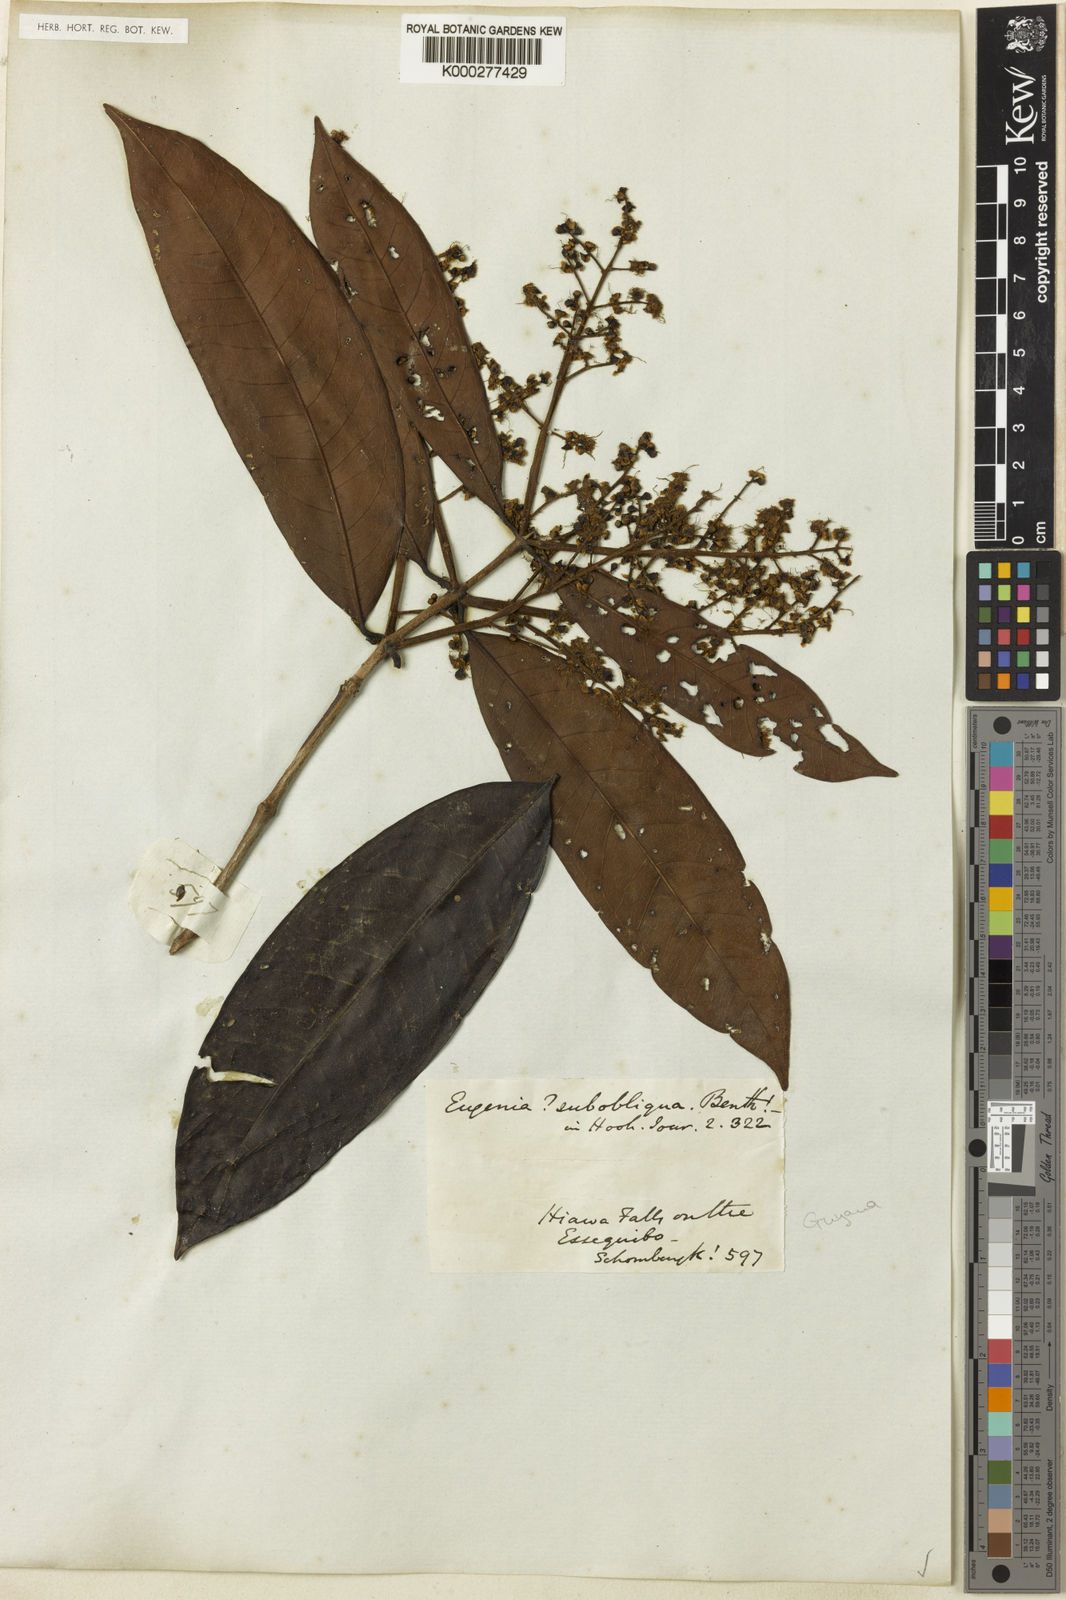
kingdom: Plantae
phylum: Tracheophyta
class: Magnoliopsida
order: Myrtales
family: Myrtaceae
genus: Myrcia
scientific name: Myrcia subobliqua
